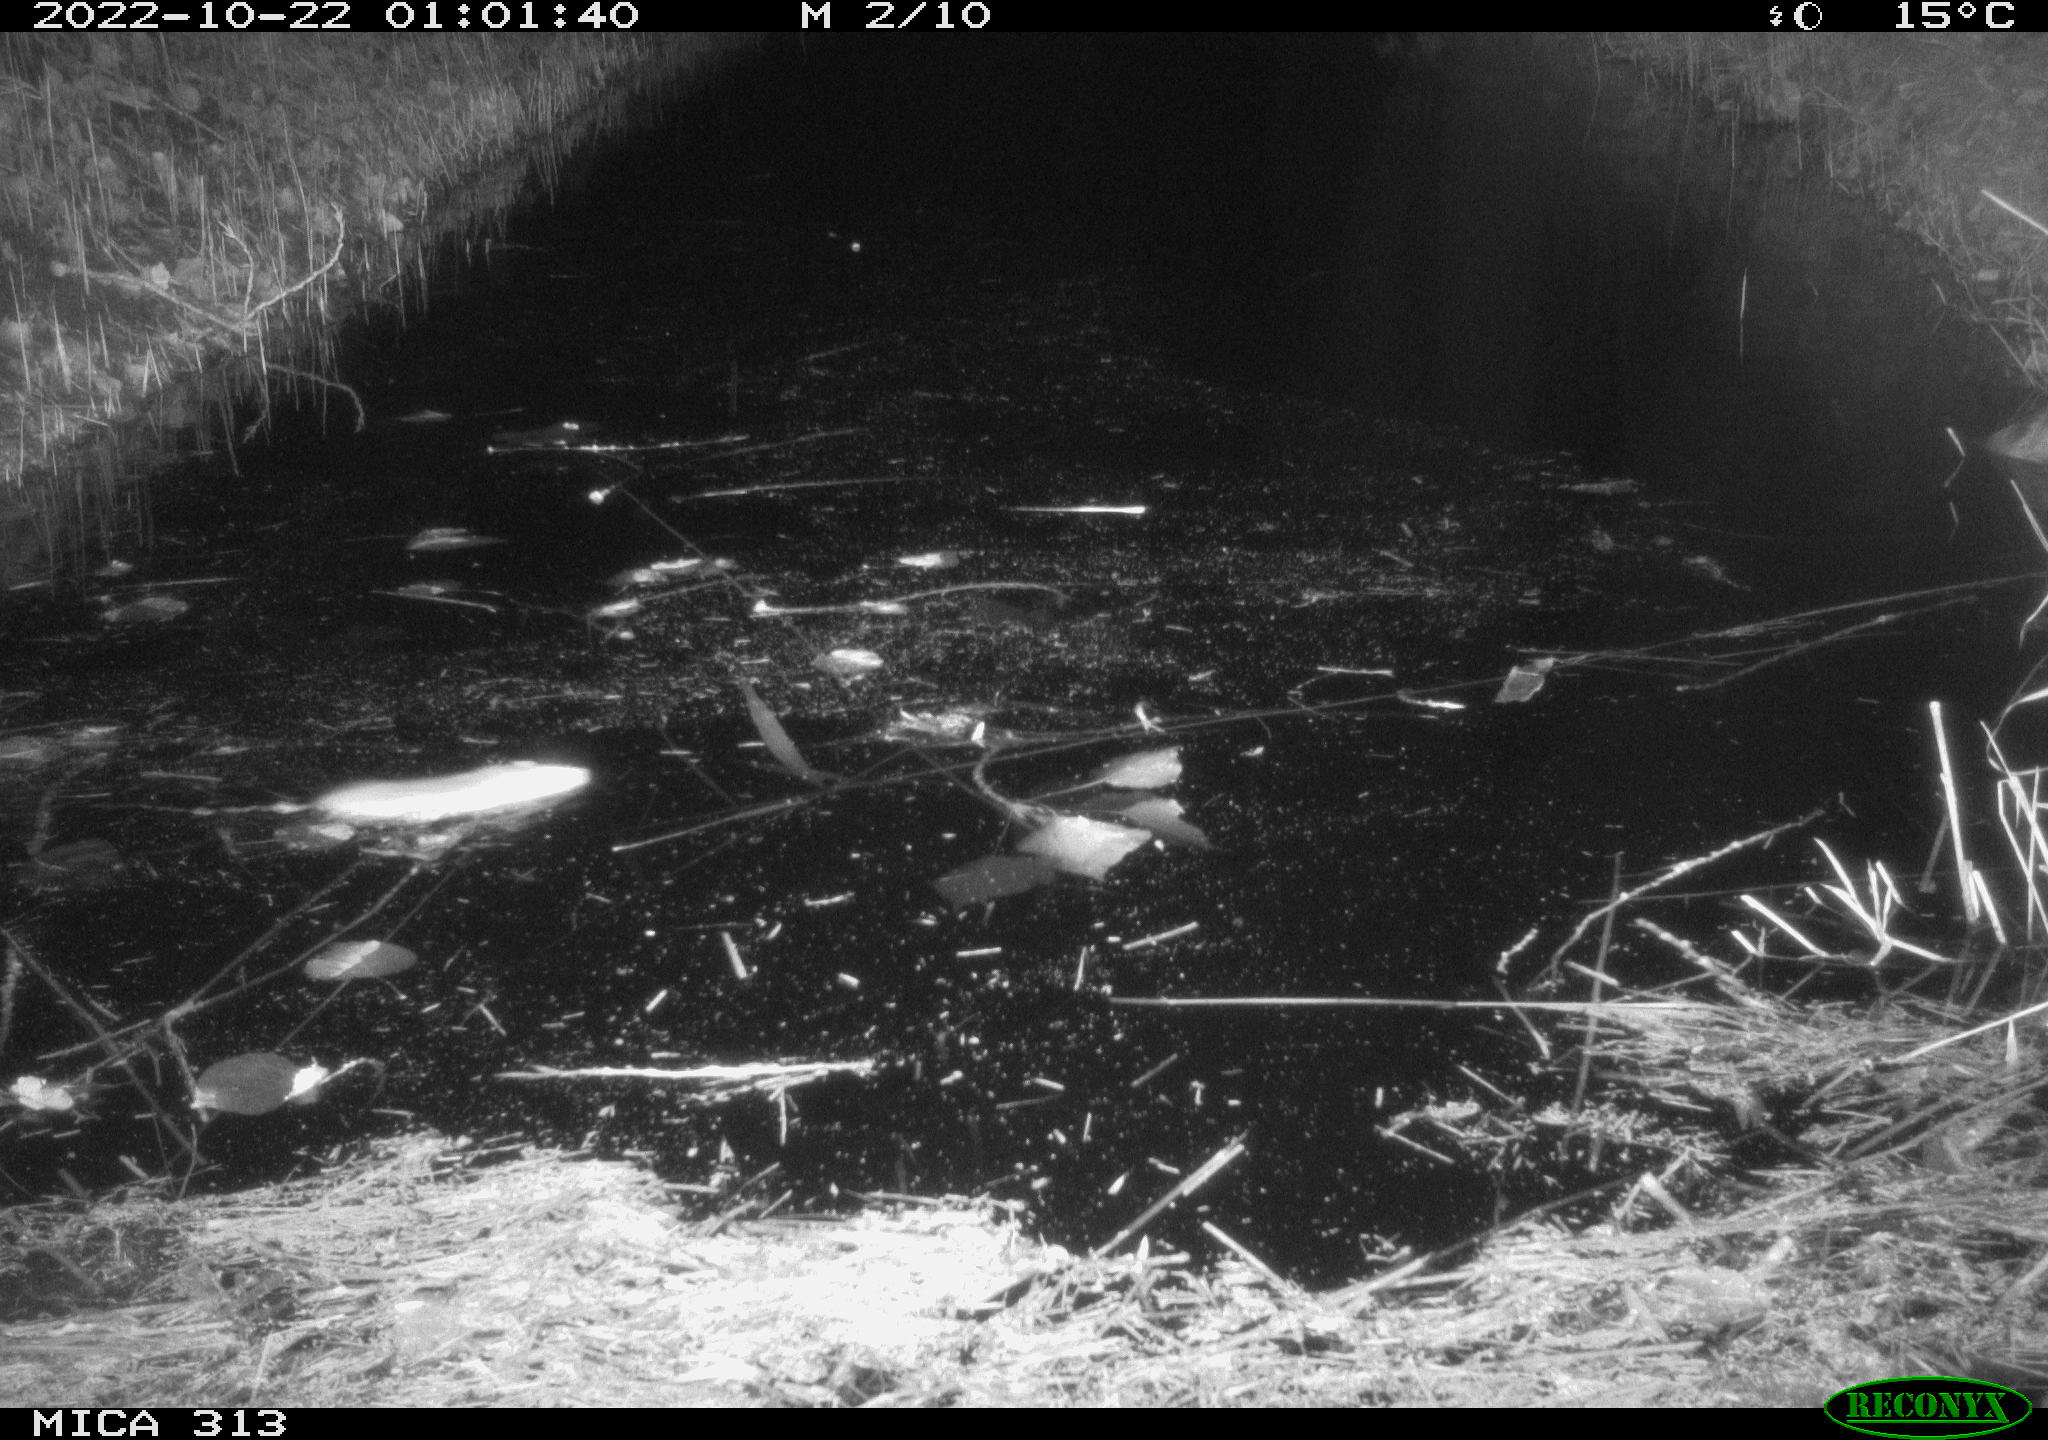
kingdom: Animalia
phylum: Chordata
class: Mammalia
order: Rodentia
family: Muridae
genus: Rattus
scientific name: Rattus norvegicus
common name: Brown rat
